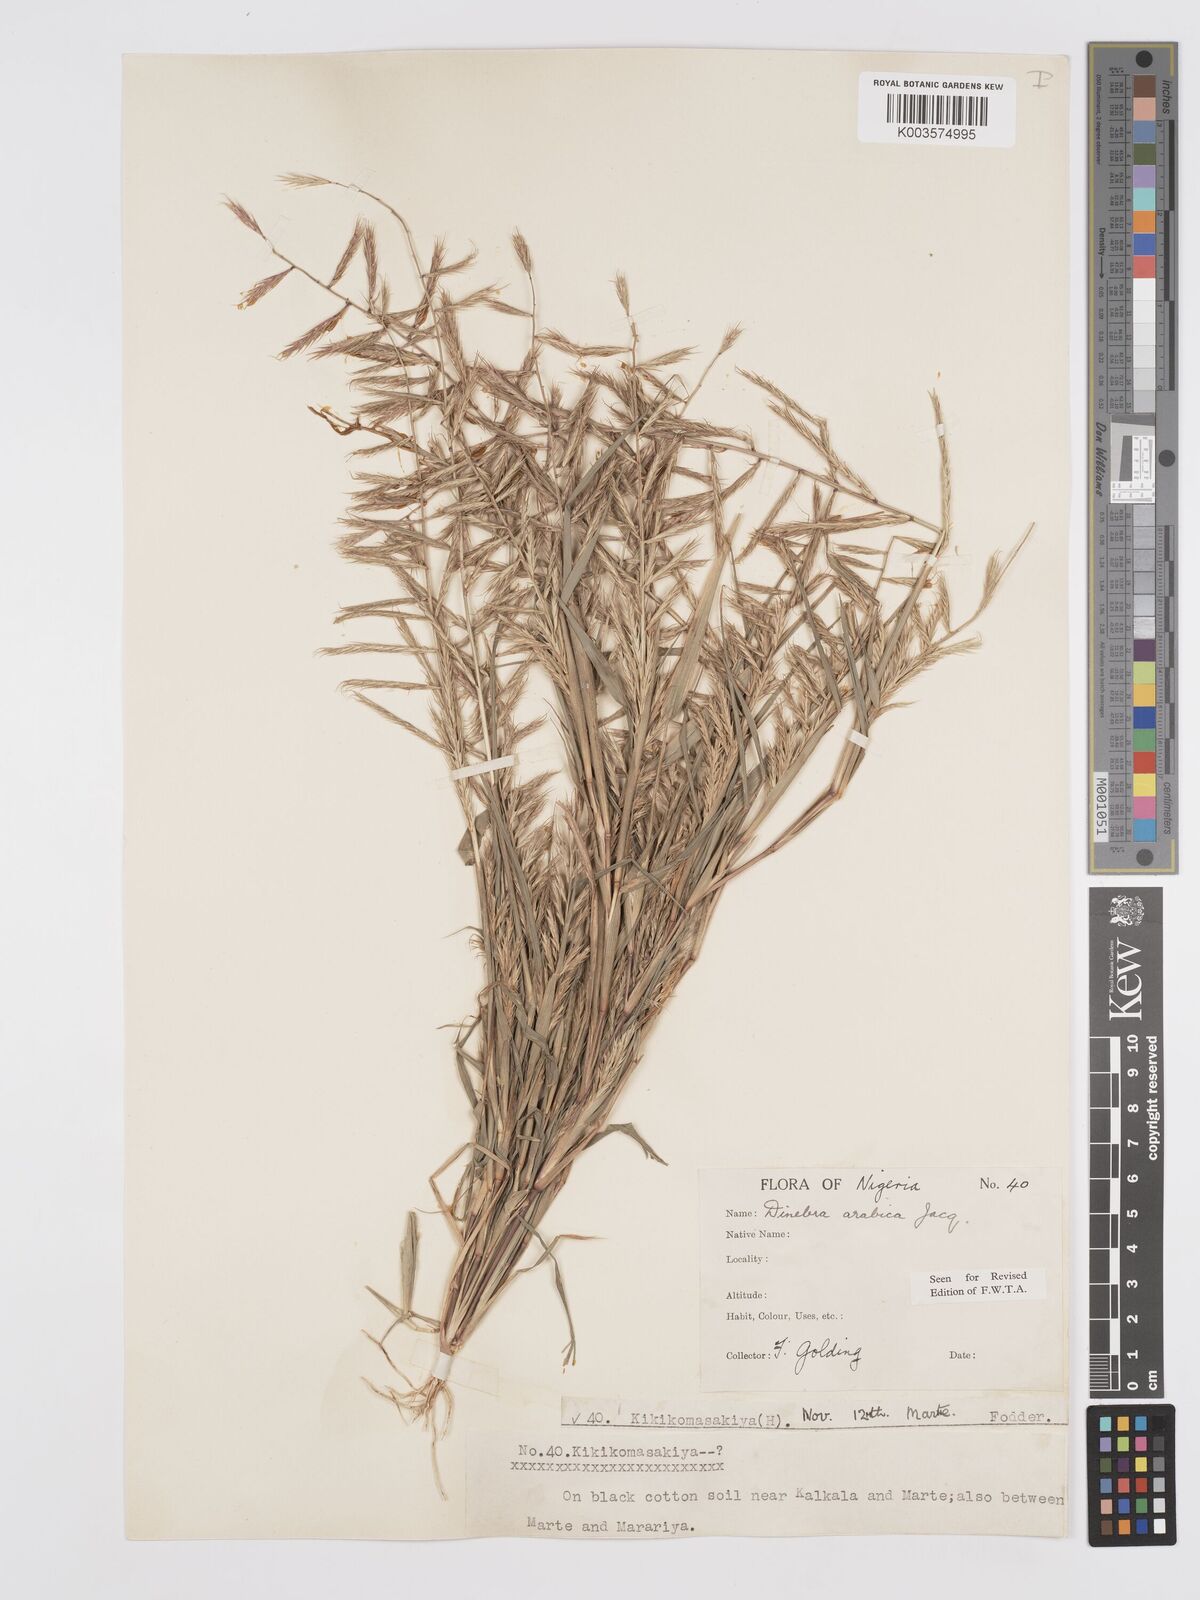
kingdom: Plantae
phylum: Tracheophyta
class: Liliopsida
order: Poales
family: Poaceae
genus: Dinebra
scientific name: Dinebra retroflexa
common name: Viper grass
